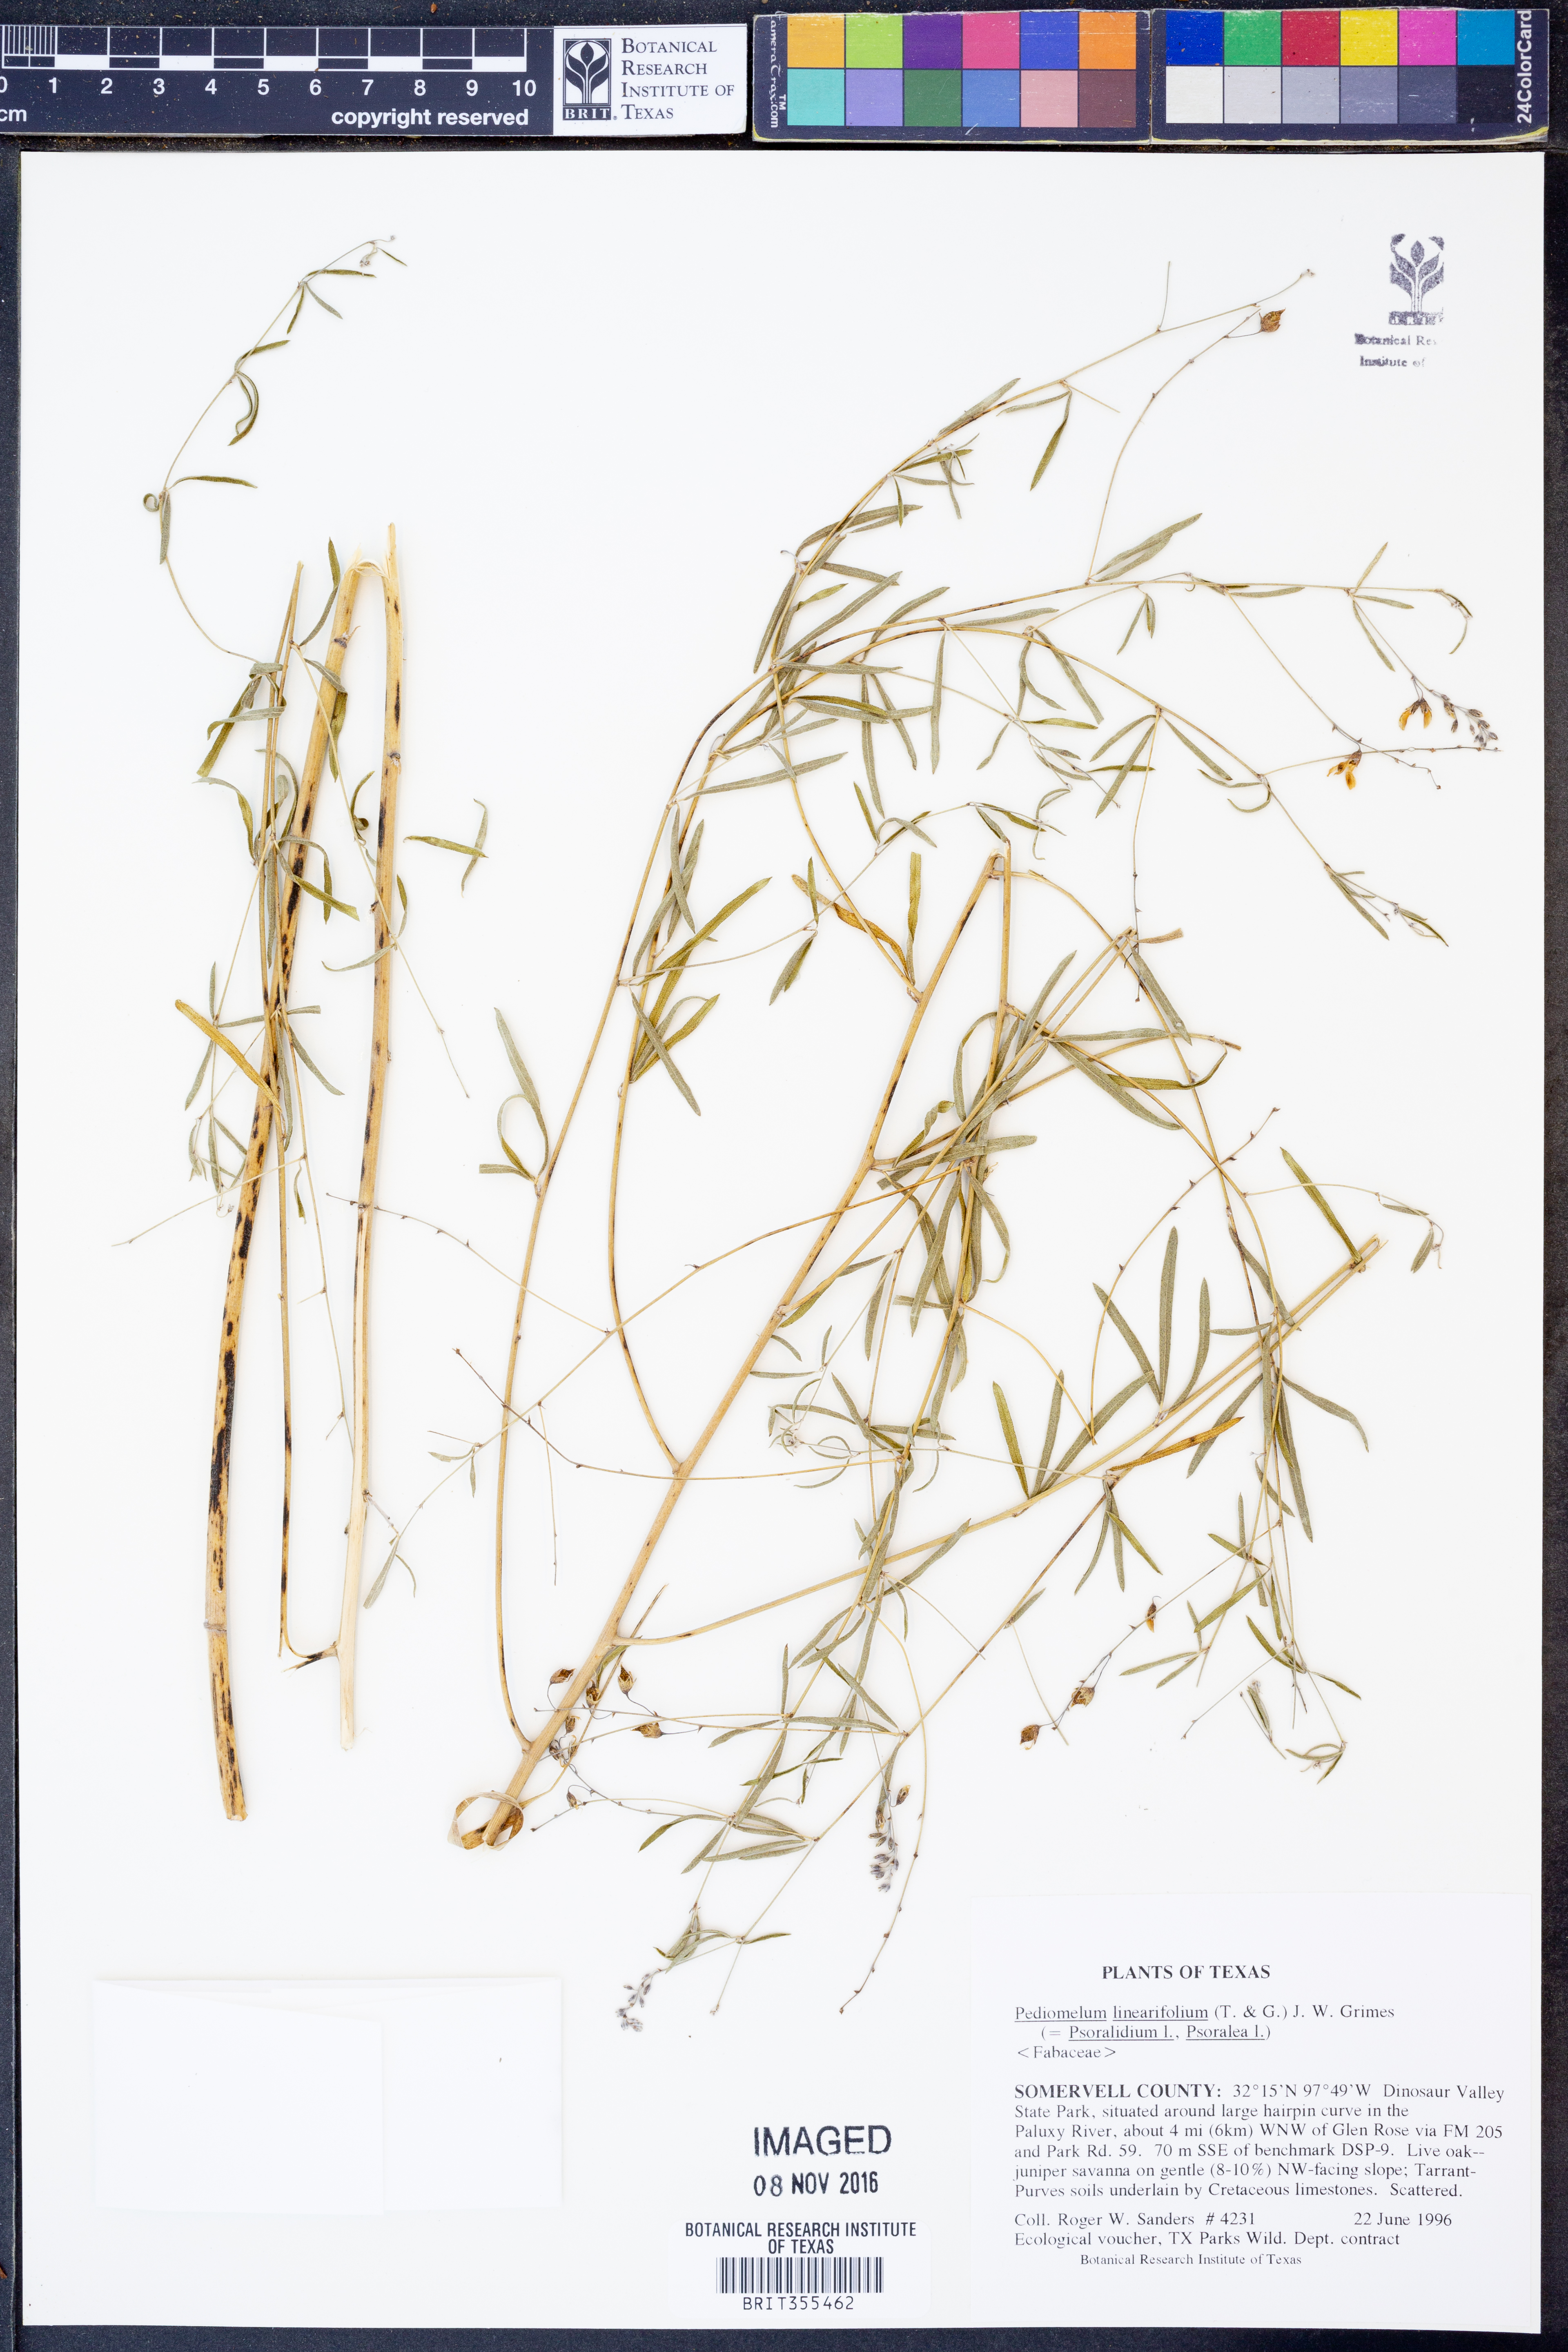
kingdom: Plantae
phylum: Tracheophyta
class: Magnoliopsida
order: Fabales
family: Fabaceae
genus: Pediomelum
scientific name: Pediomelum linearifolium
